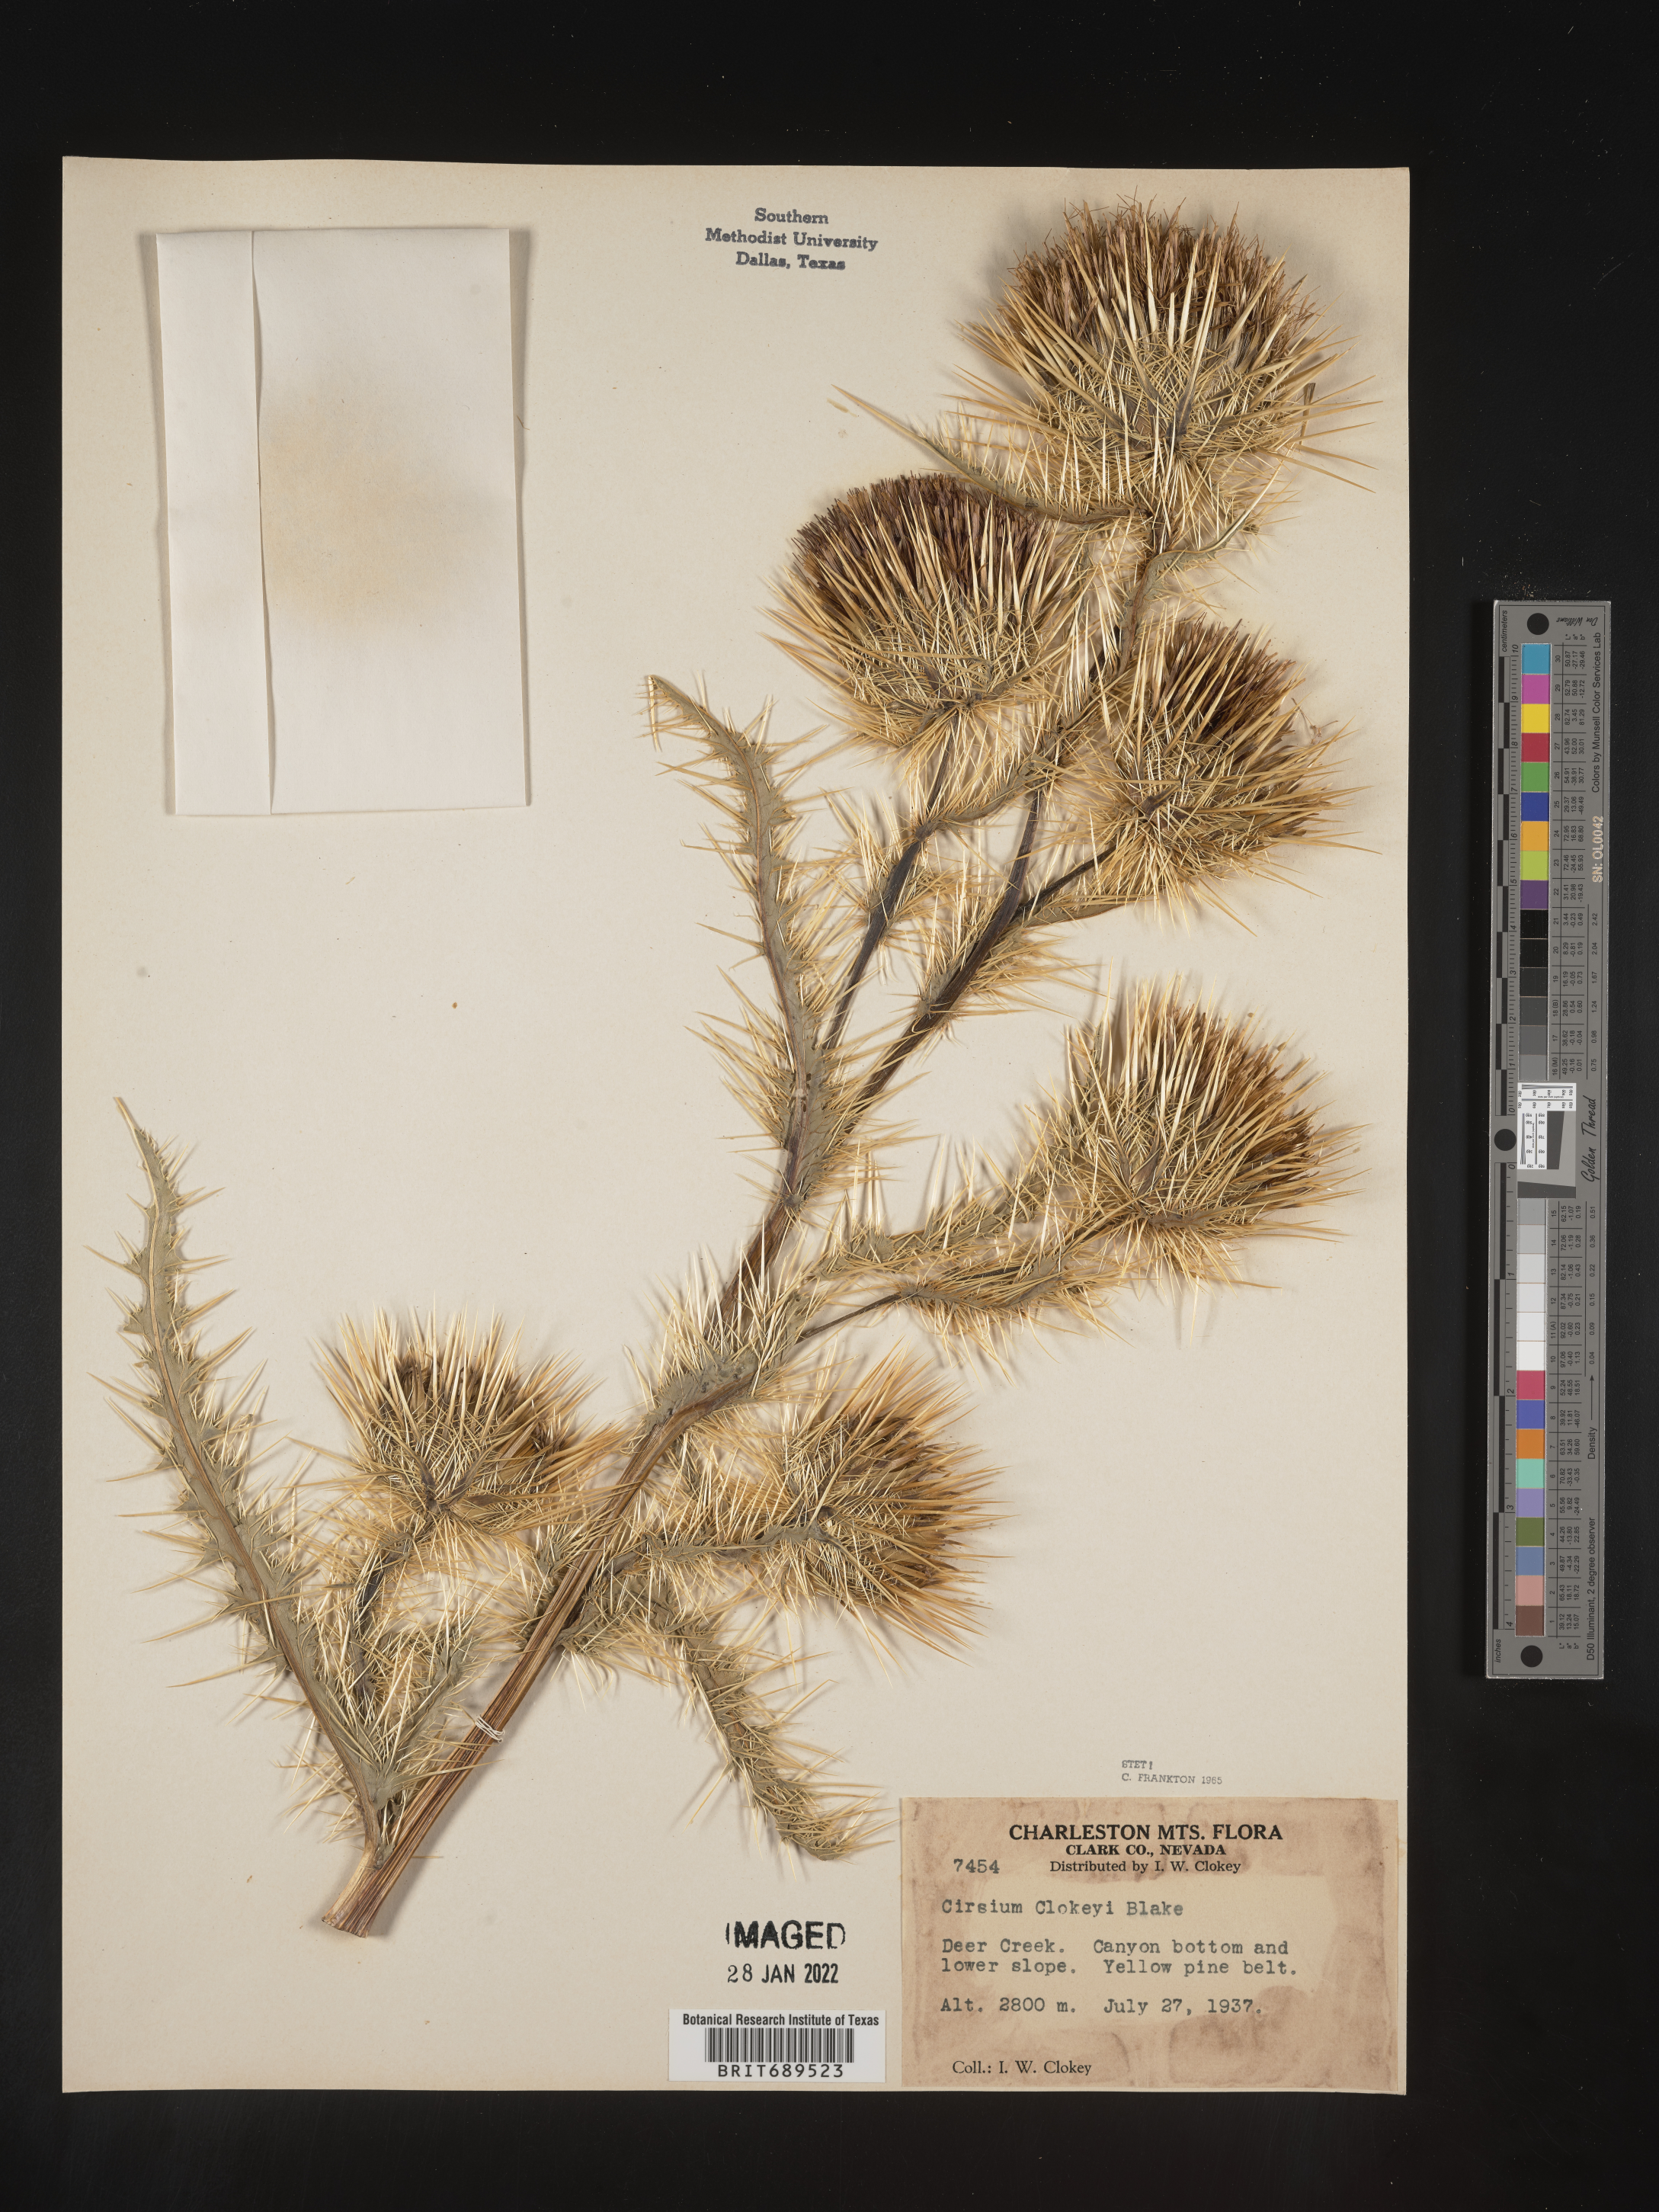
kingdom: Plantae
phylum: Tracheophyta
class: Magnoliopsida
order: Asterales
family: Asteraceae
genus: Cirsium
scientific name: Cirsium eatonii
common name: Eaton's thistle
